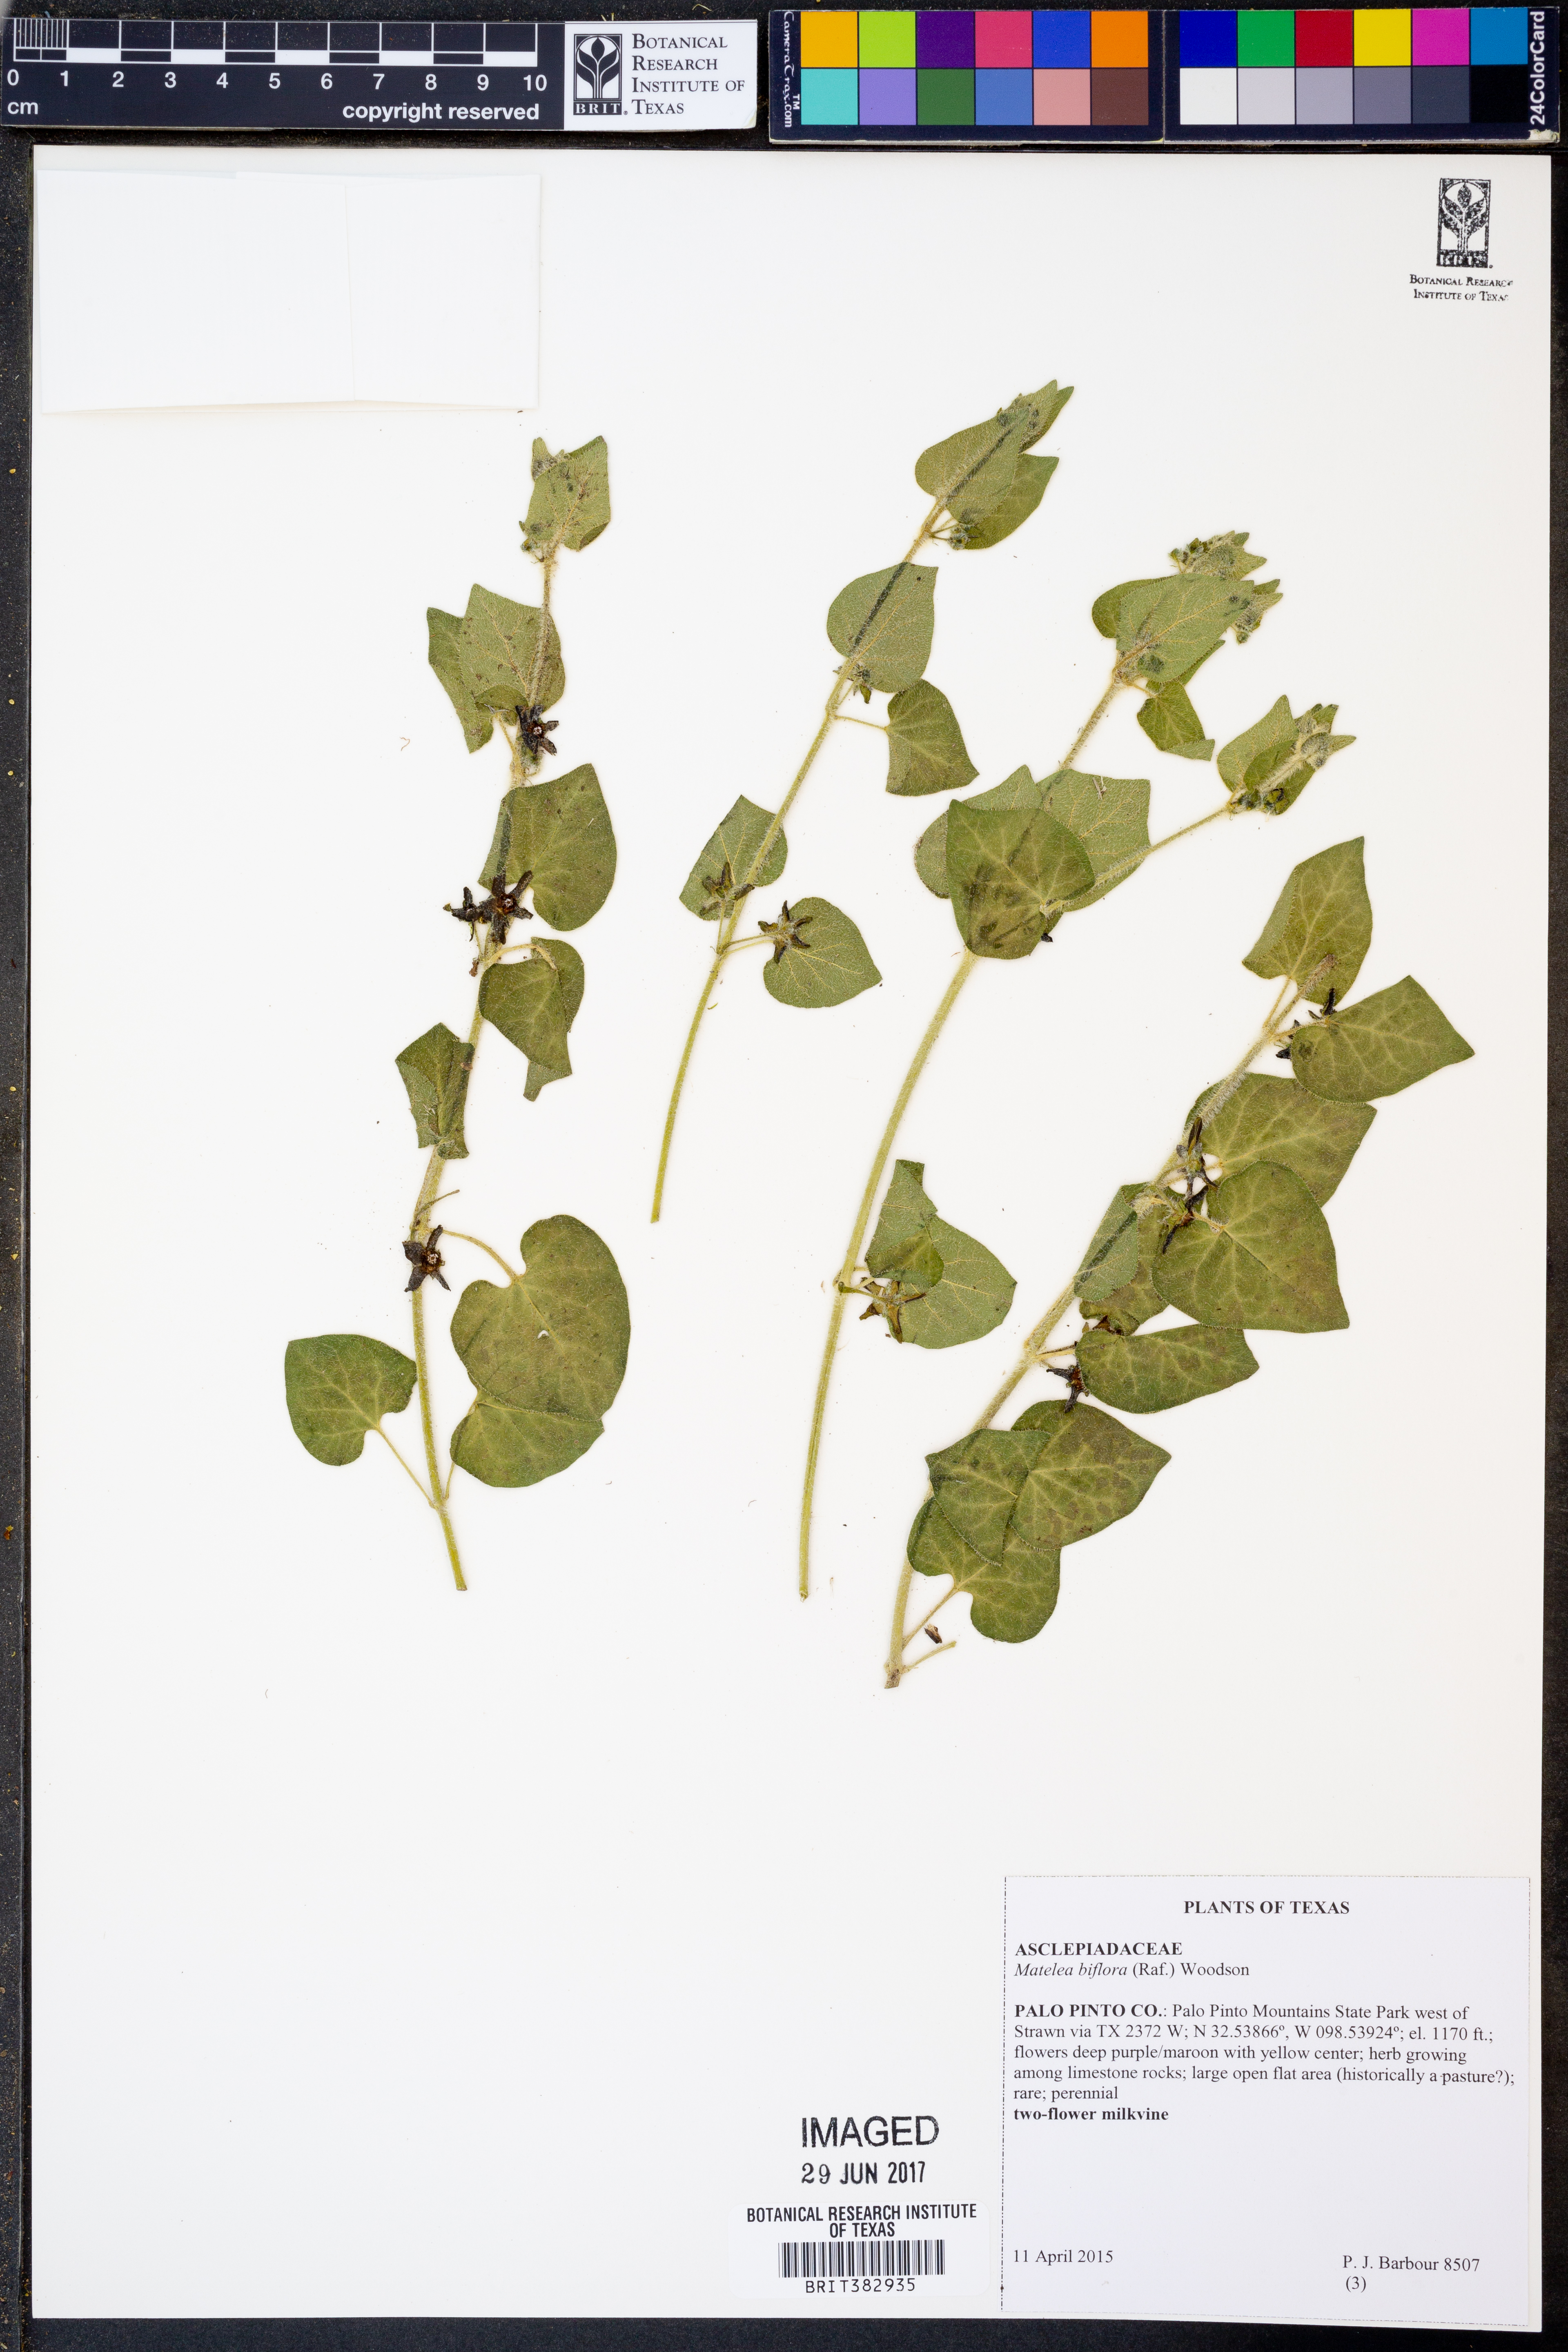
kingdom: Plantae
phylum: Tracheophyta
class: Magnoliopsida
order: Gentianales
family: Apocynaceae
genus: Chthamalia
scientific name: Chthamalia biflora
